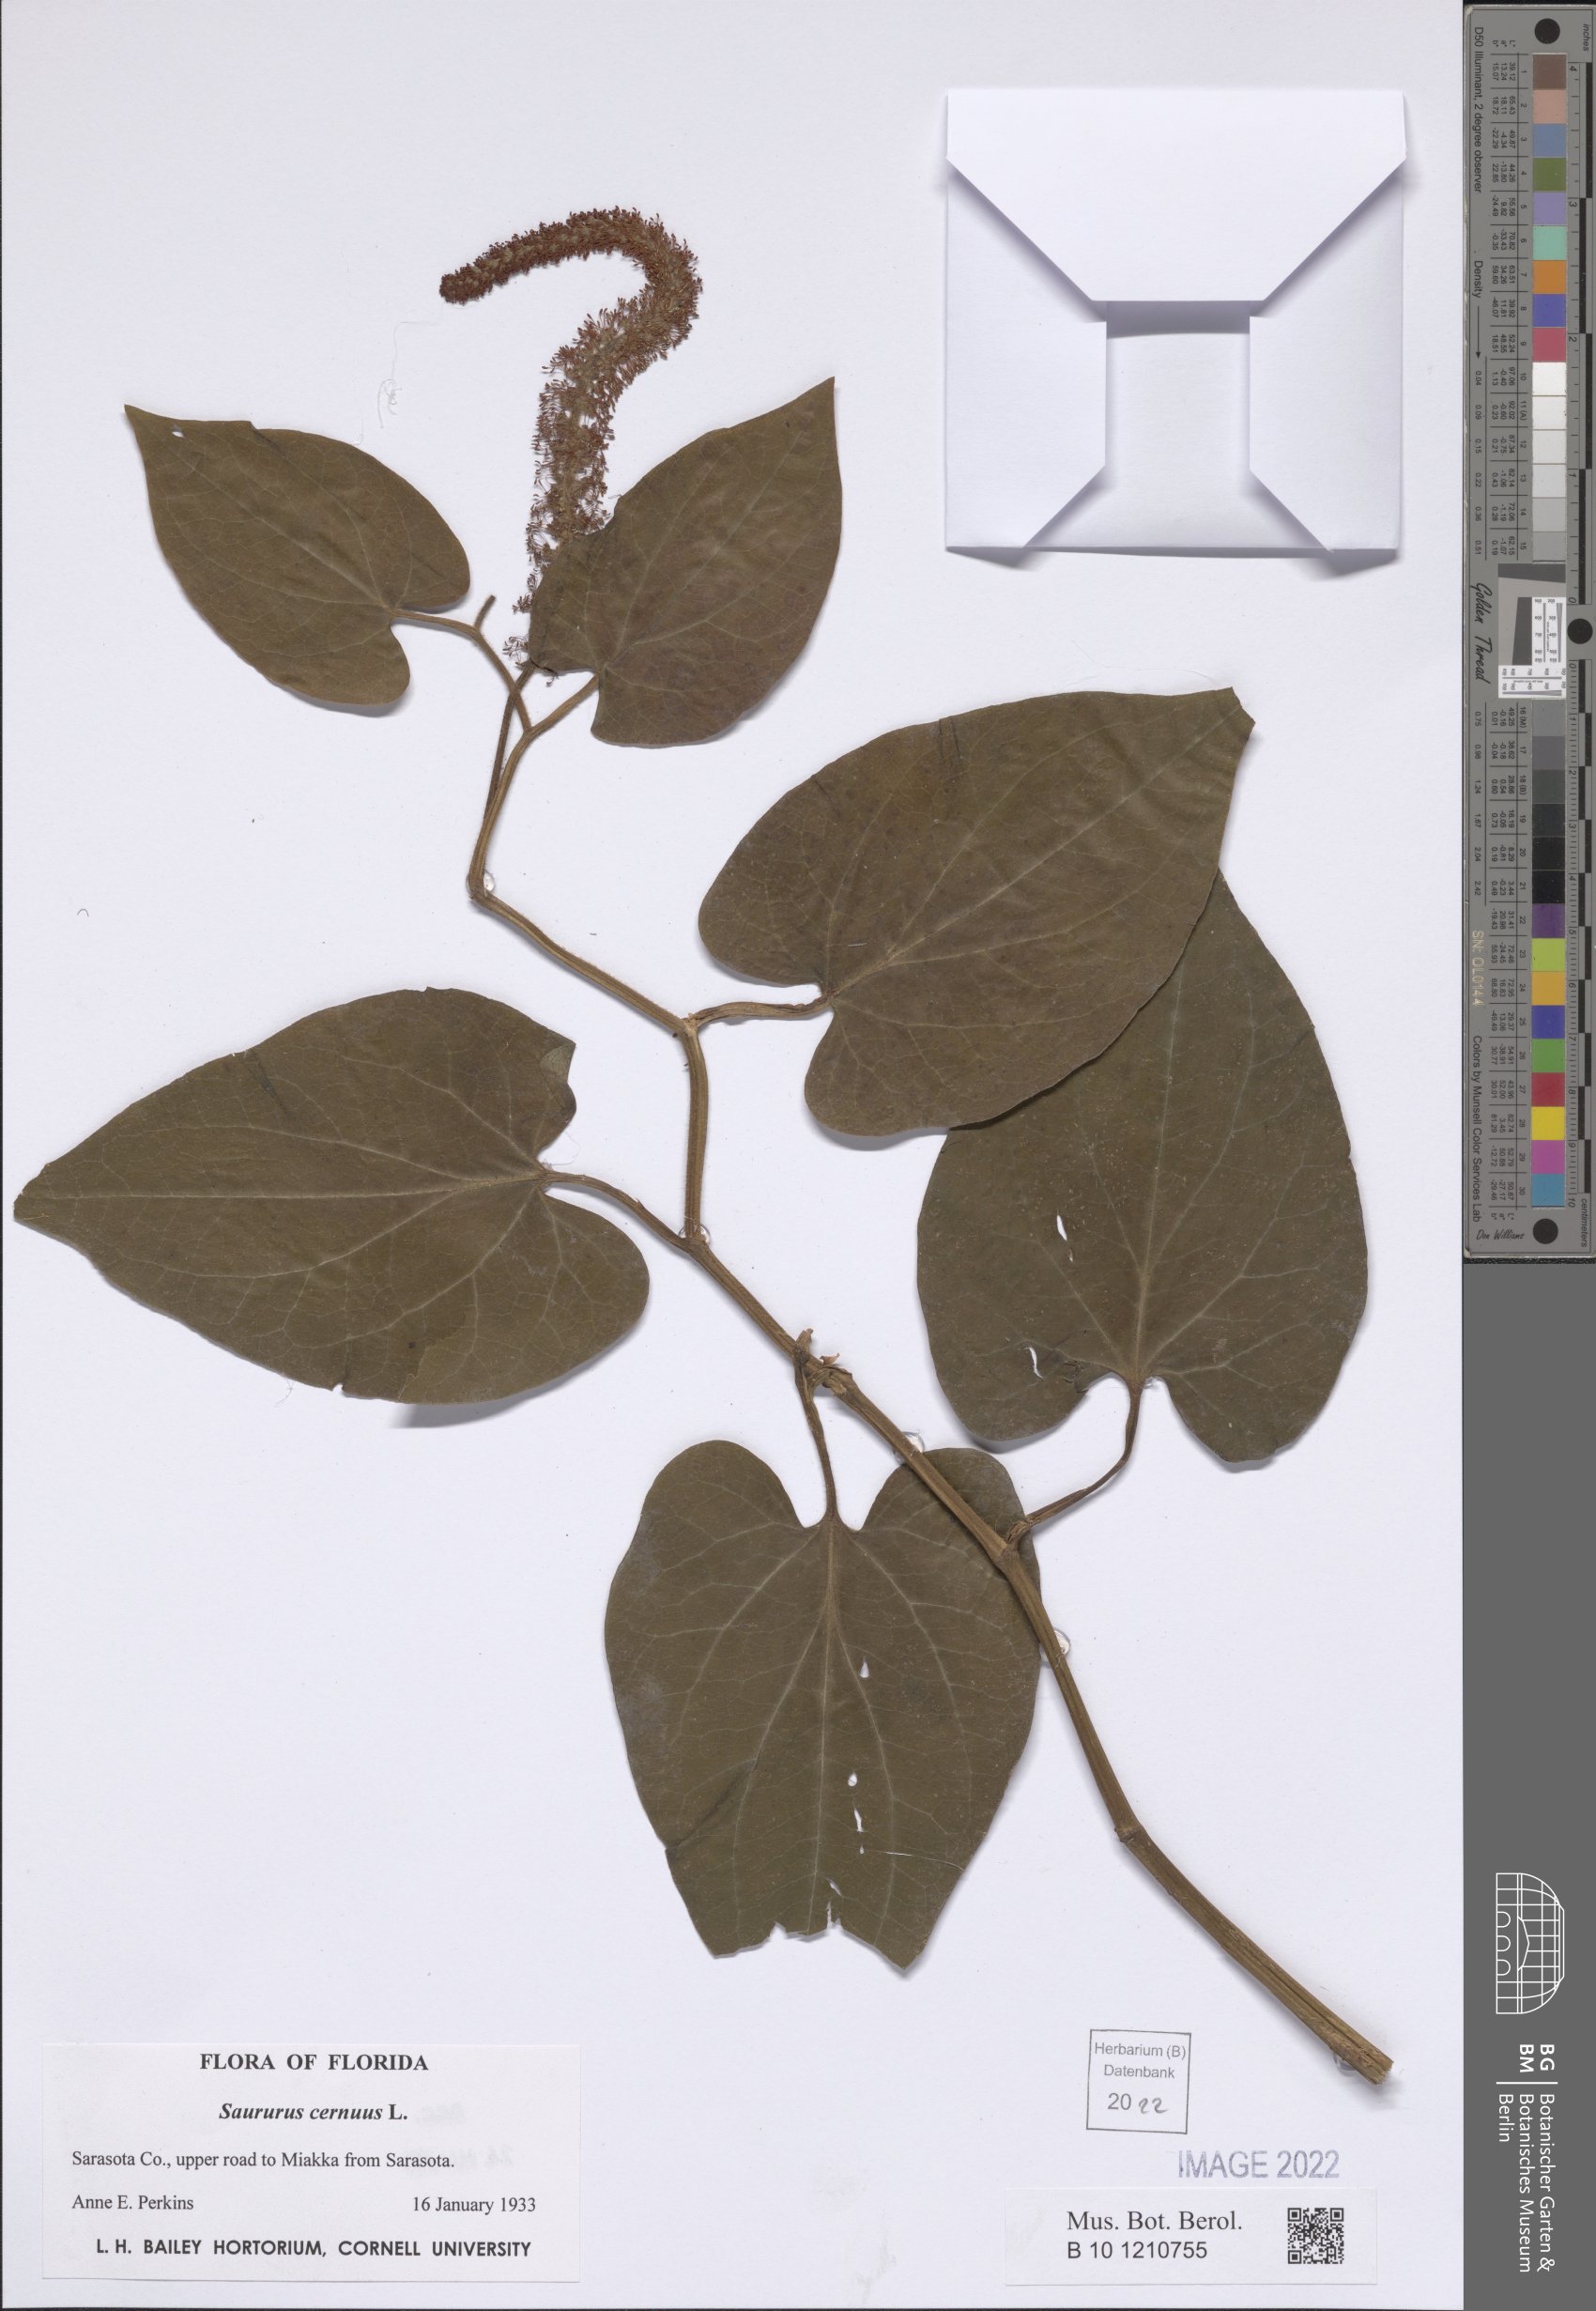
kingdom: Plantae
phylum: Tracheophyta
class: Magnoliopsida
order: Piperales
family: Saururaceae
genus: Saururus
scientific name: Saururus cernuus
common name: Lizard's-tail
